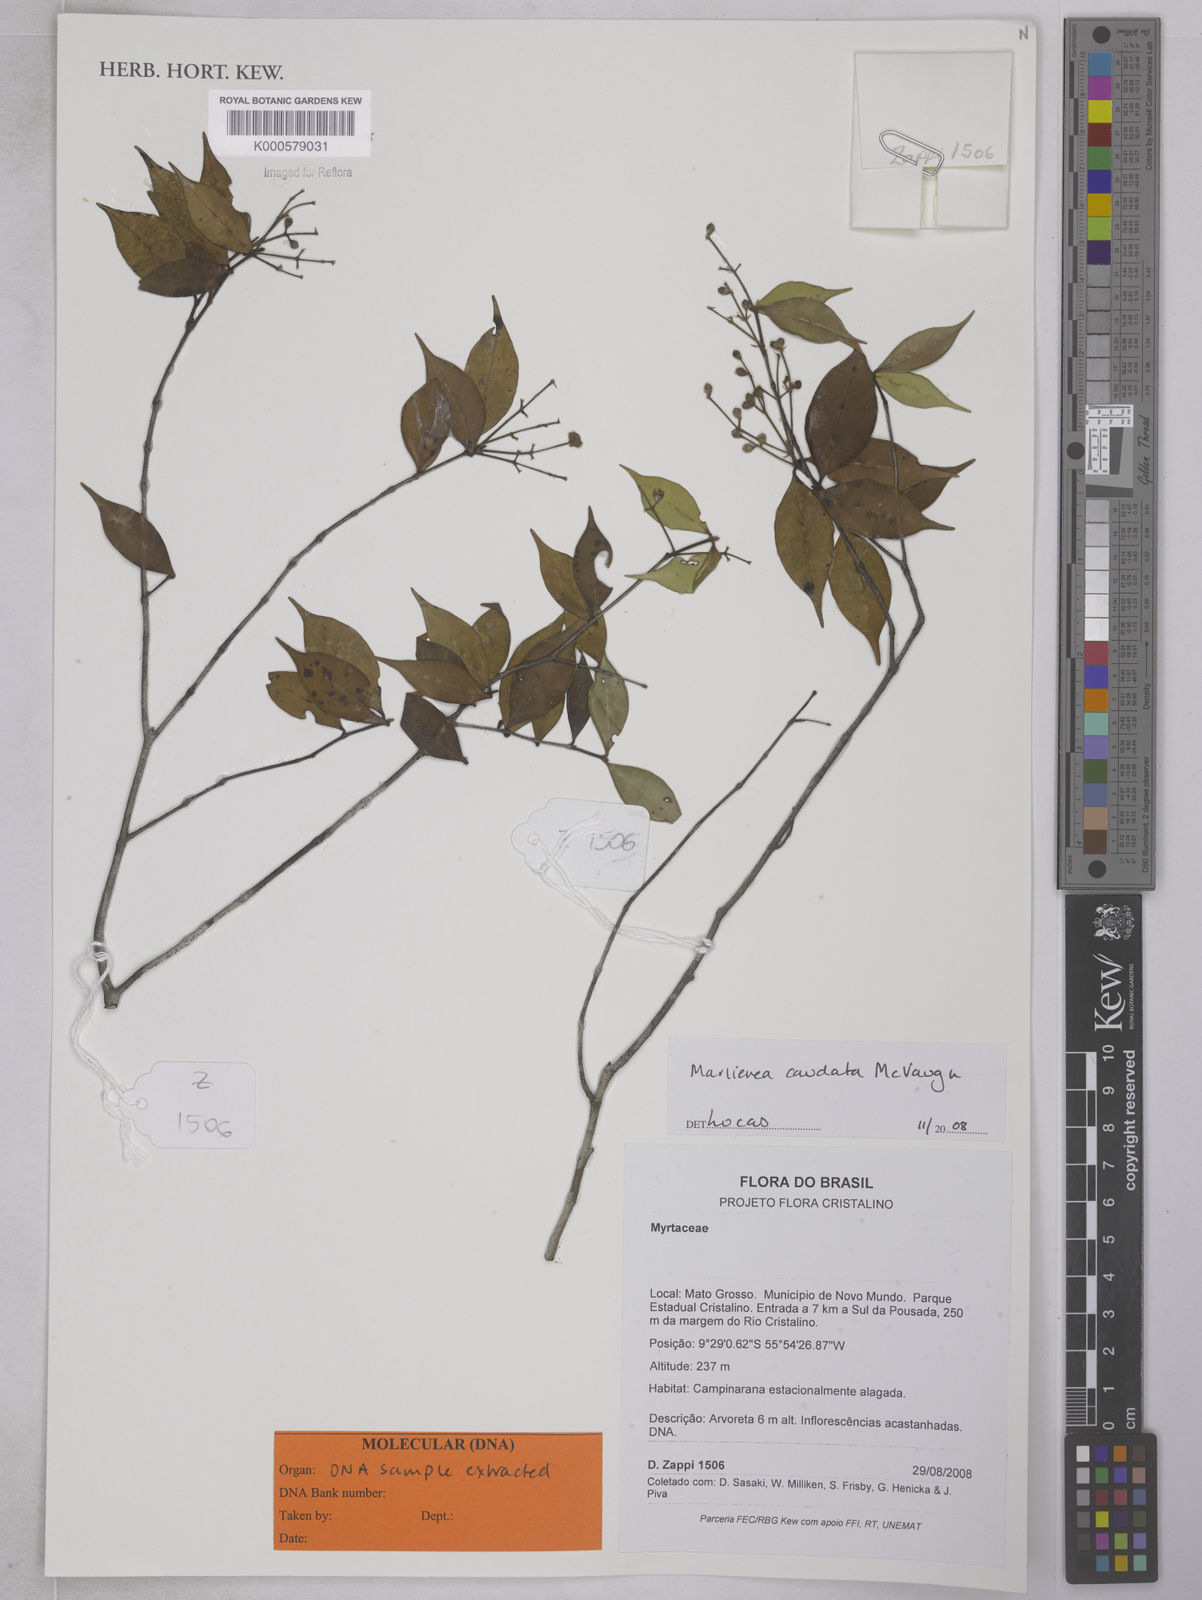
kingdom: Plantae
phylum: Tracheophyta
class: Magnoliopsida
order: Myrtales
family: Myrtaceae
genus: Myrcia
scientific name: Myrcia caudata
